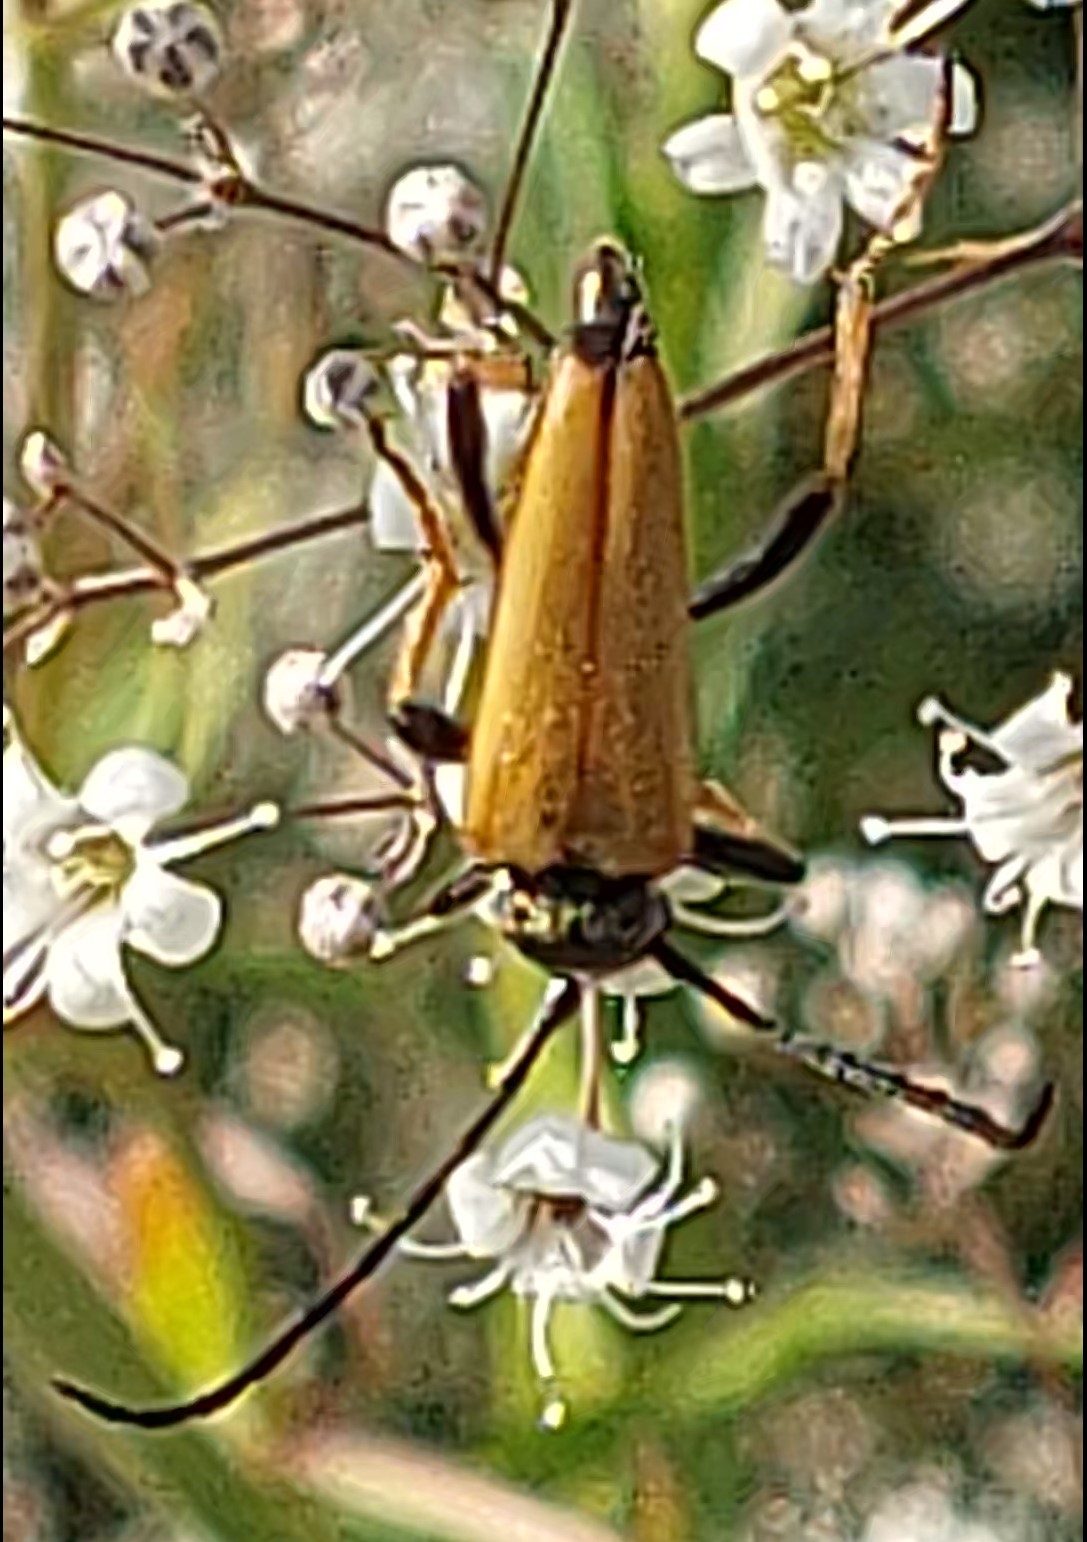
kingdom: Animalia
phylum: Arthropoda
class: Insecta
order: Coleoptera
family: Cerambycidae
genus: Stictoleptura
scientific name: Stictoleptura rubra
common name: Rød blomsterbuk
